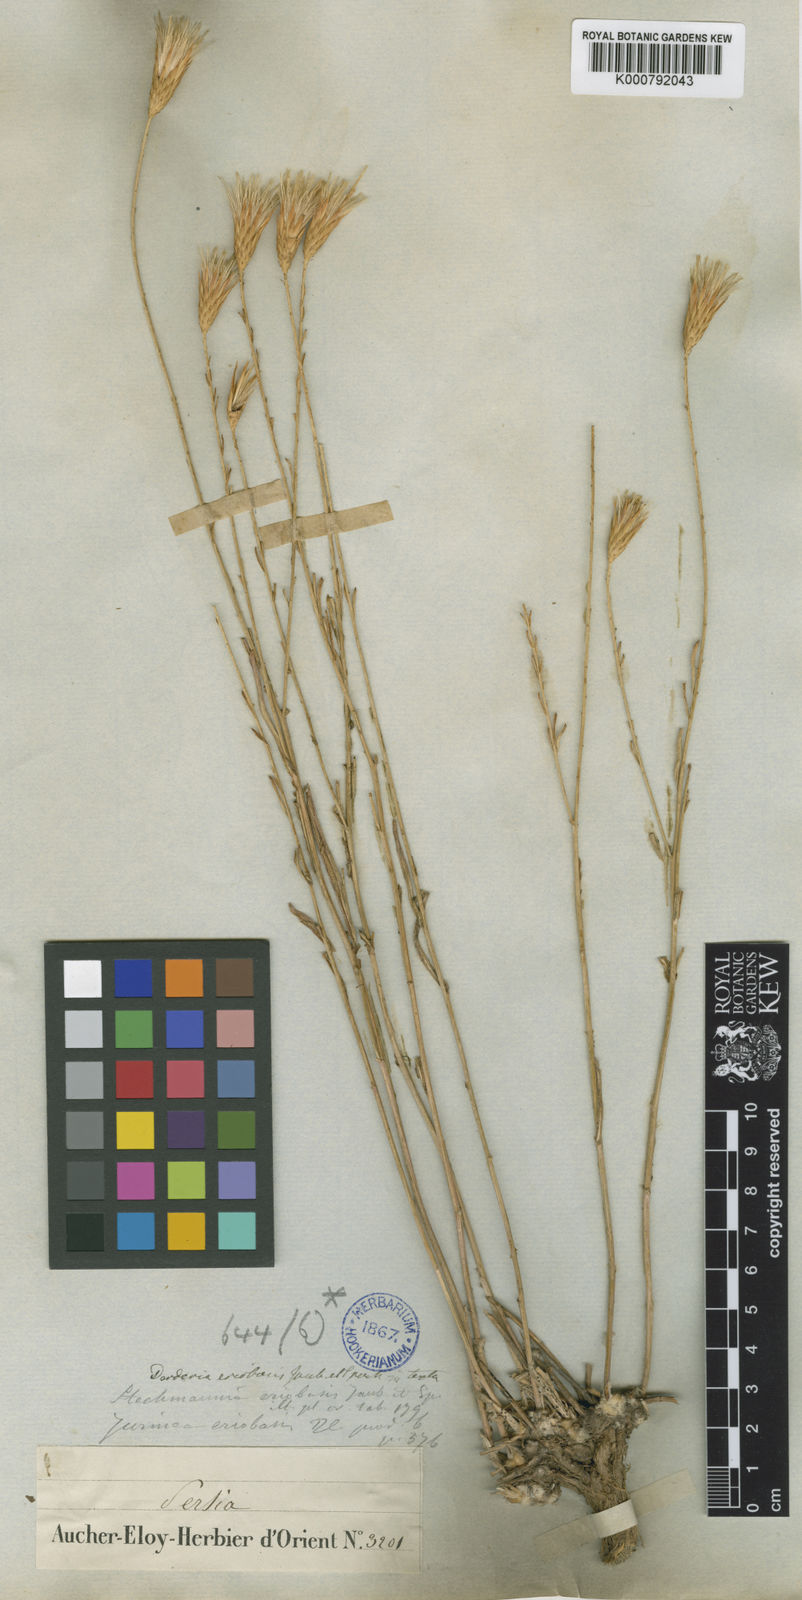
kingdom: Plantae
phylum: Tracheophyta
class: Magnoliopsida
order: Asterales
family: Asteraceae
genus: Jurinea
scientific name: Jurinea eriobasis
